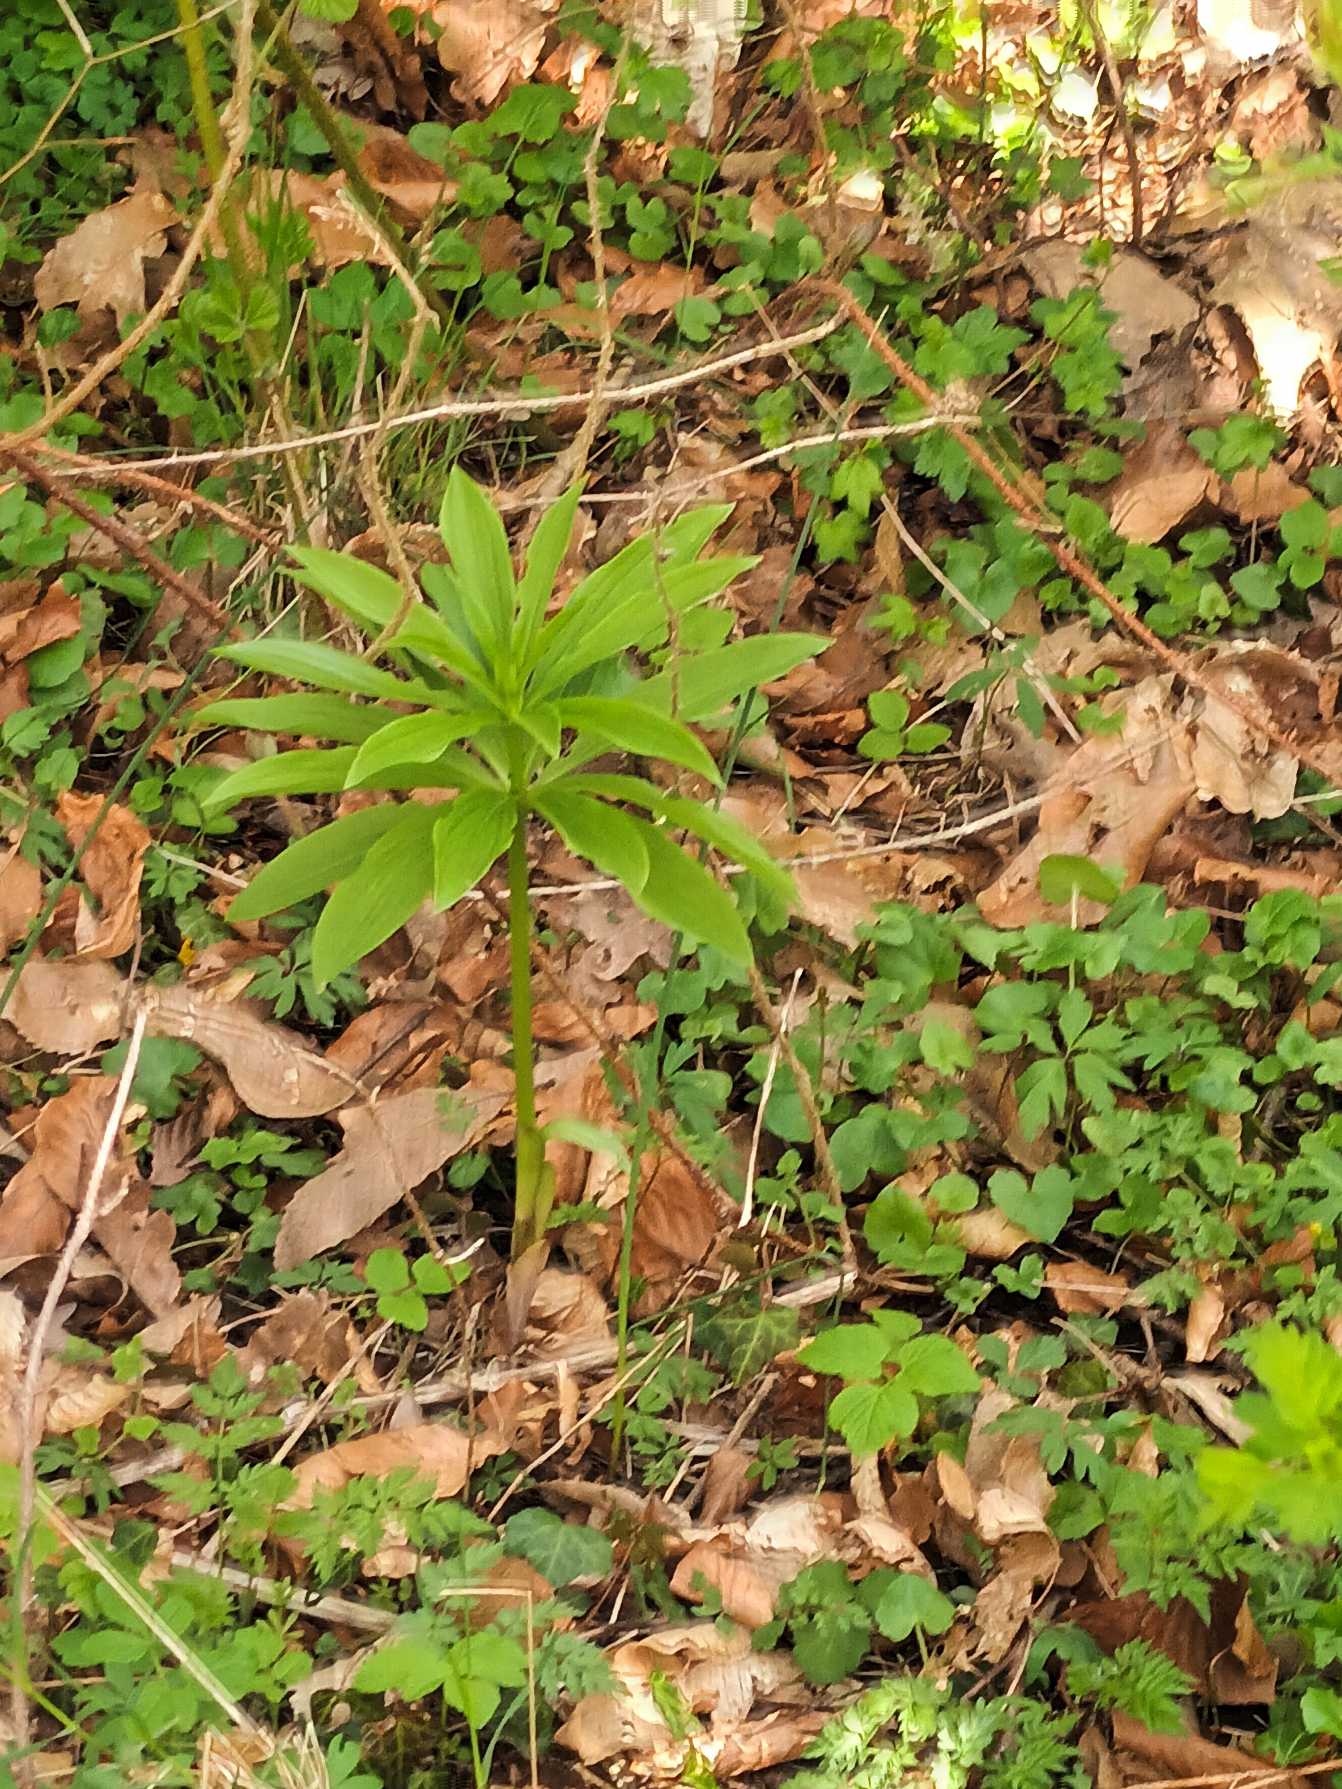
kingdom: Plantae
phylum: Tracheophyta
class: Liliopsida
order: Liliales
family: Liliaceae
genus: Lilium
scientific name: Lilium martagon
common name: Krans-lilje
